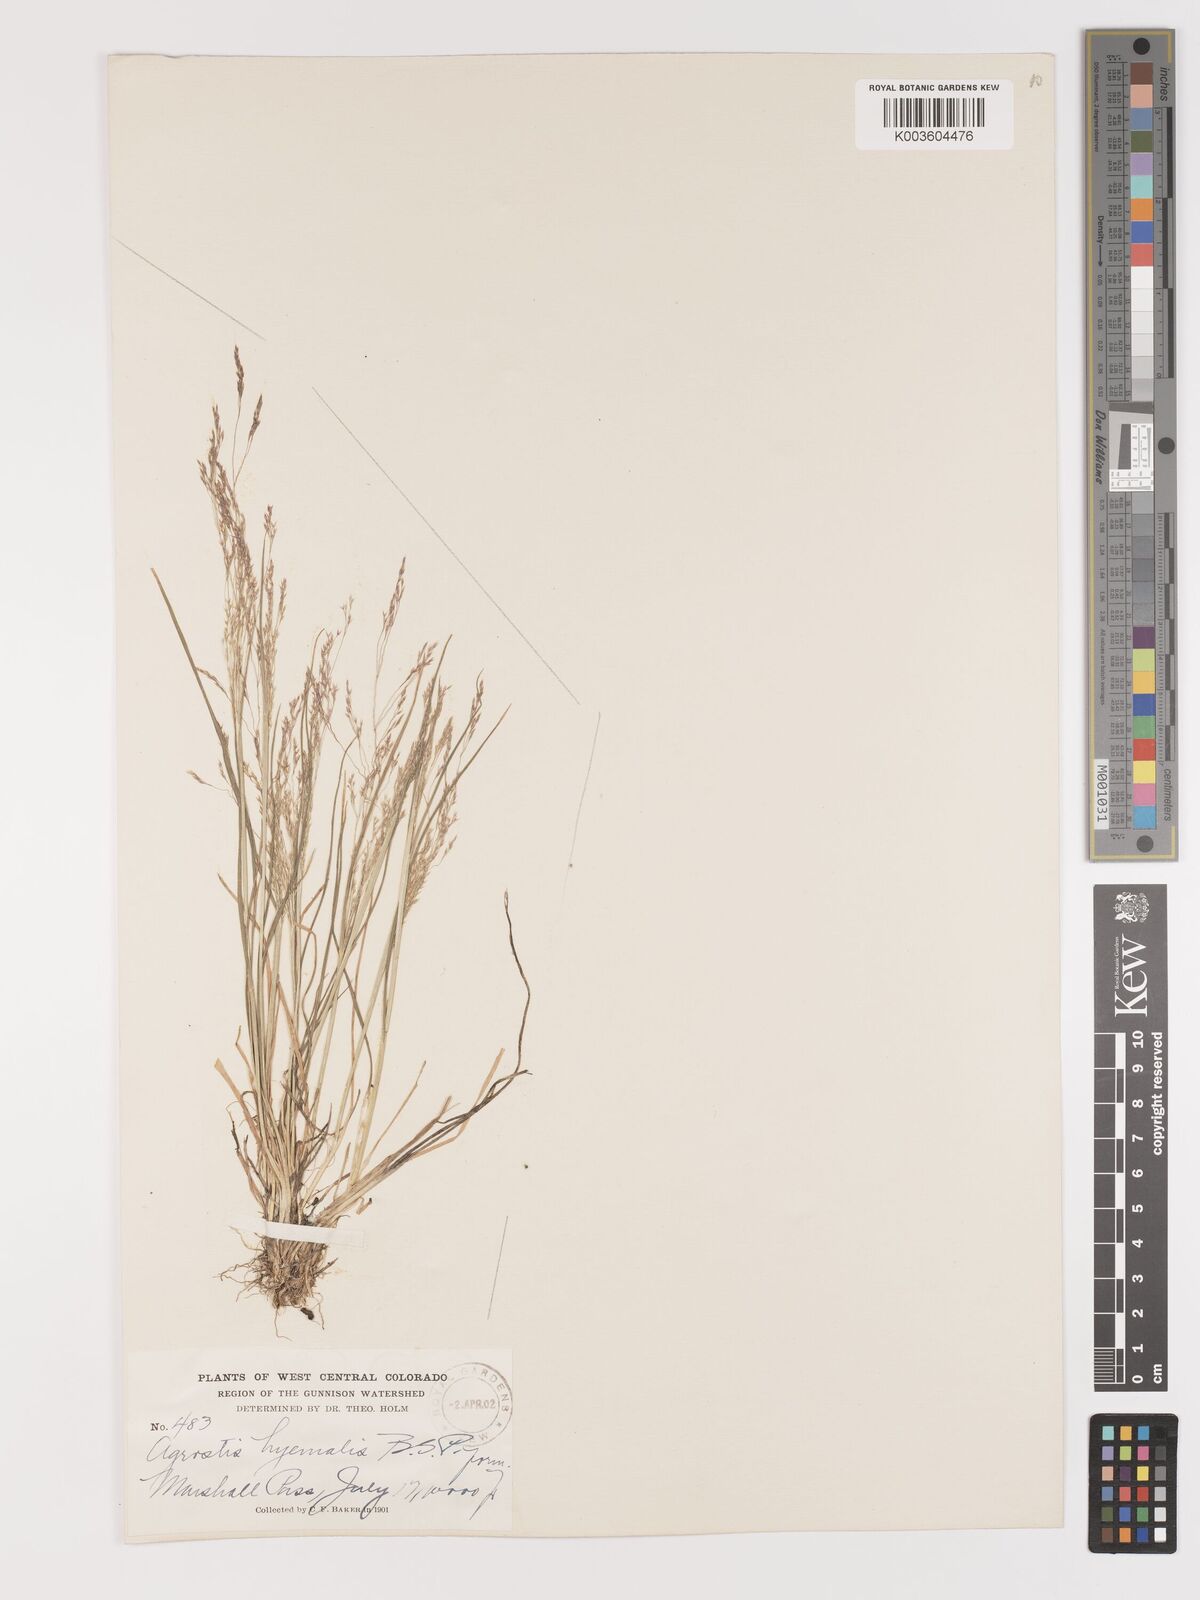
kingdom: Plantae
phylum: Tracheophyta
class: Liliopsida
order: Poales
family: Poaceae
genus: Agrostis
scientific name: Agrostis hyemalis
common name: Small bent
